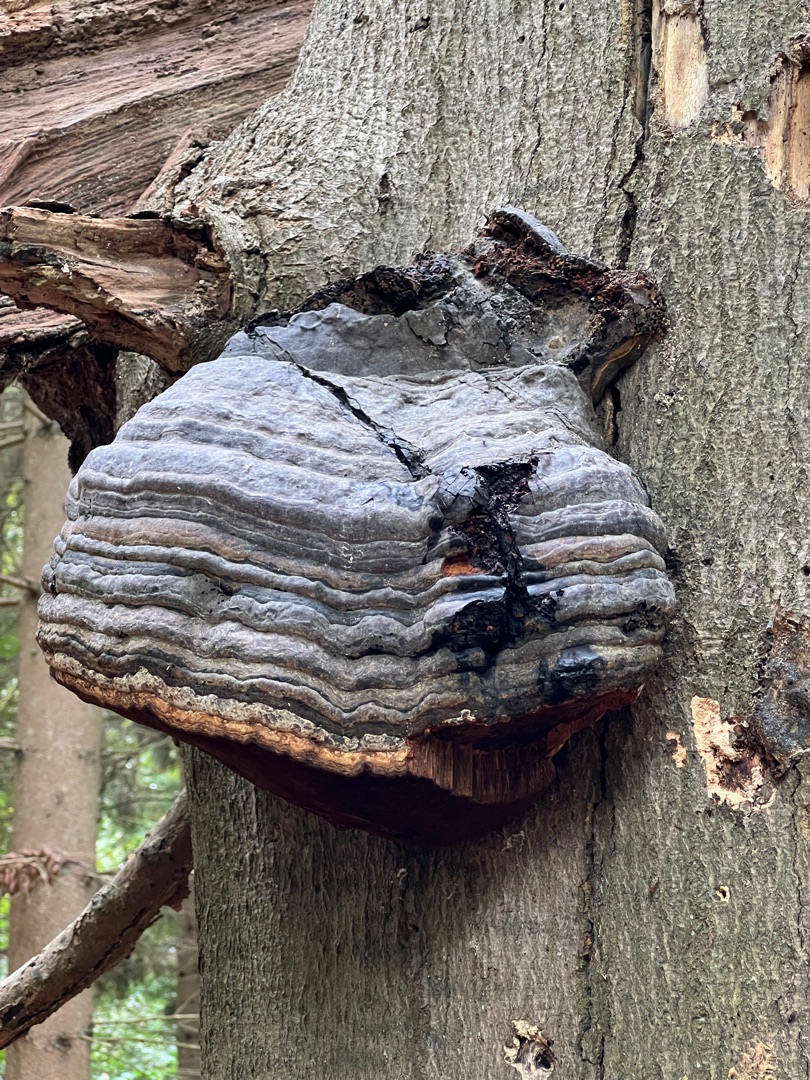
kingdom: Fungi
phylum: Basidiomycota
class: Agaricomycetes
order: Polyporales
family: Polyporaceae
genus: Fomes
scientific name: Fomes fomentarius
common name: Tøndersvamp
